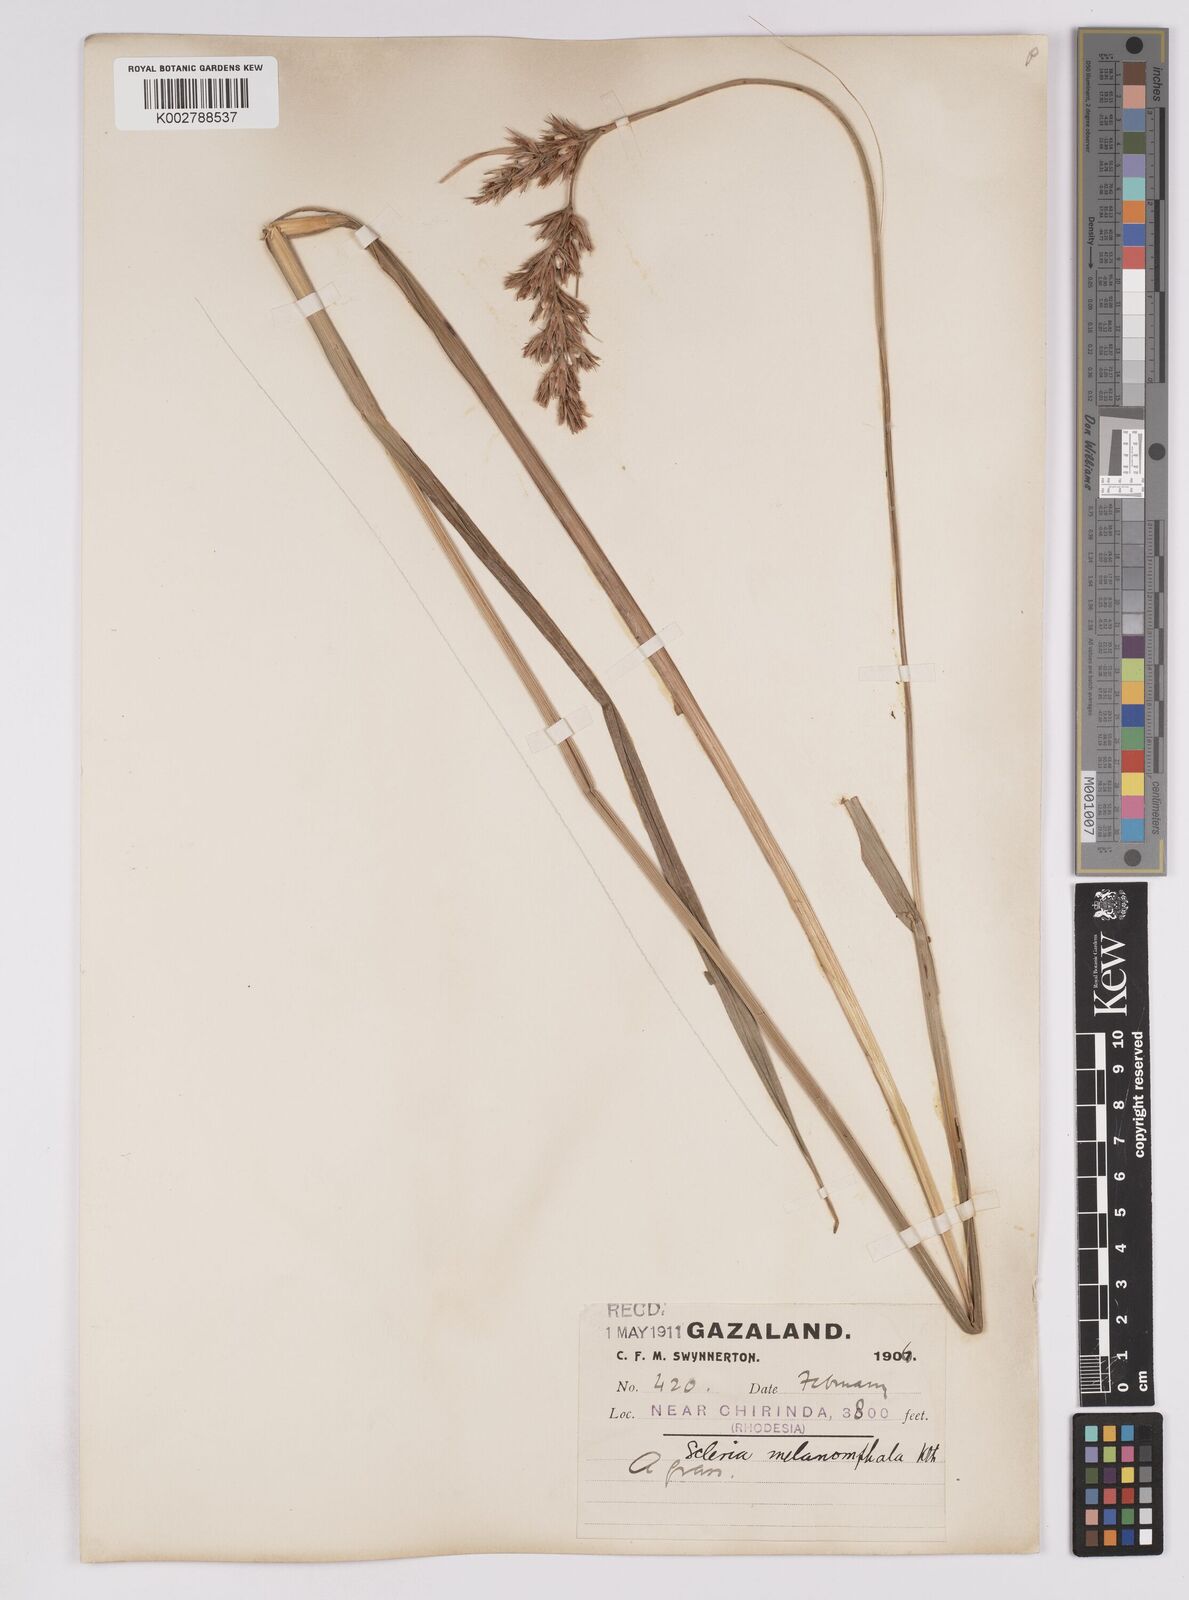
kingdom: Plantae
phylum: Tracheophyta
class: Liliopsida
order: Poales
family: Cyperaceae
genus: Scleria
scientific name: Scleria melanomphala
